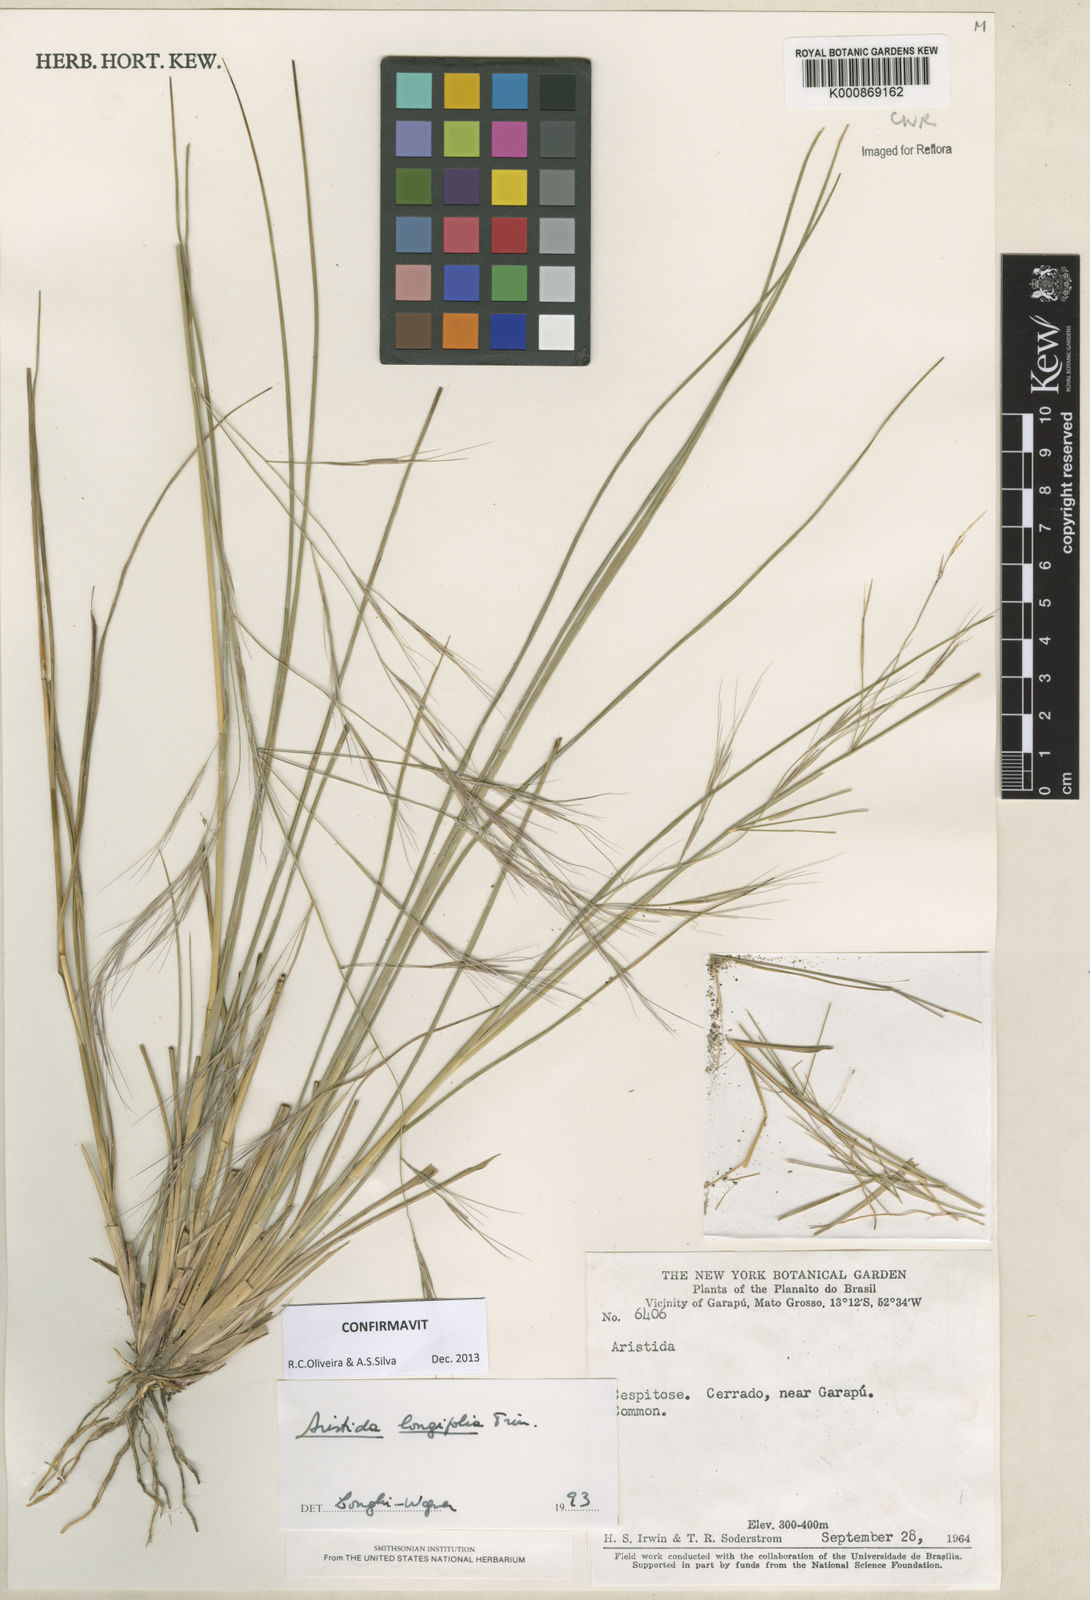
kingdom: Plantae
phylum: Tracheophyta
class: Liliopsida
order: Poales
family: Poaceae
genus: Aristida
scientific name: Aristida longifolia
